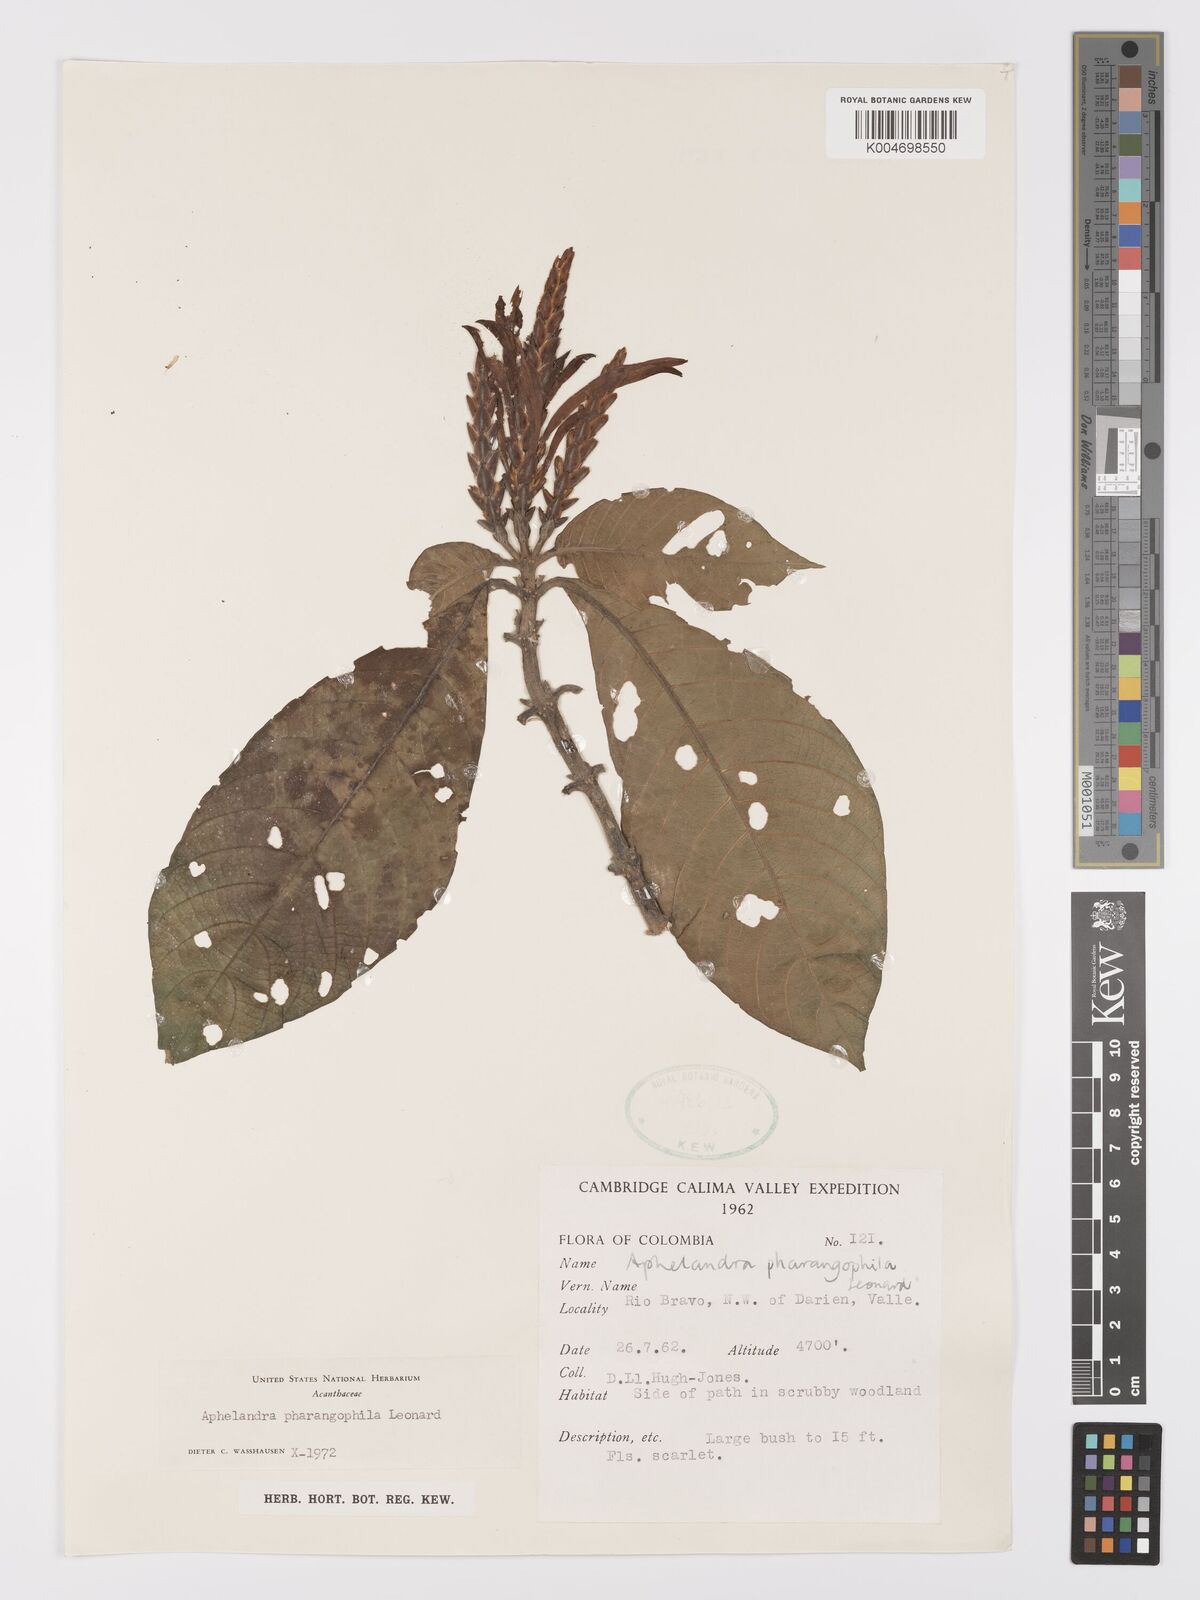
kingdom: Plantae
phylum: Tracheophyta
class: Magnoliopsida
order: Lamiales
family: Acanthaceae
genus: Aphelandra
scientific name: Aphelandra pharangophila
